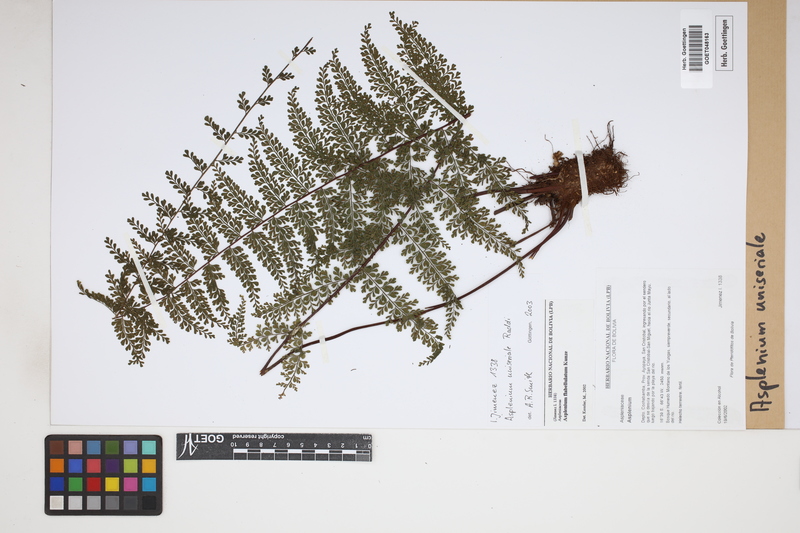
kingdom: Plantae
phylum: Tracheophyta
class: Polypodiopsida
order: Polypodiales
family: Aspleniaceae
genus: Asplenium
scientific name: Asplenium uniseriale
